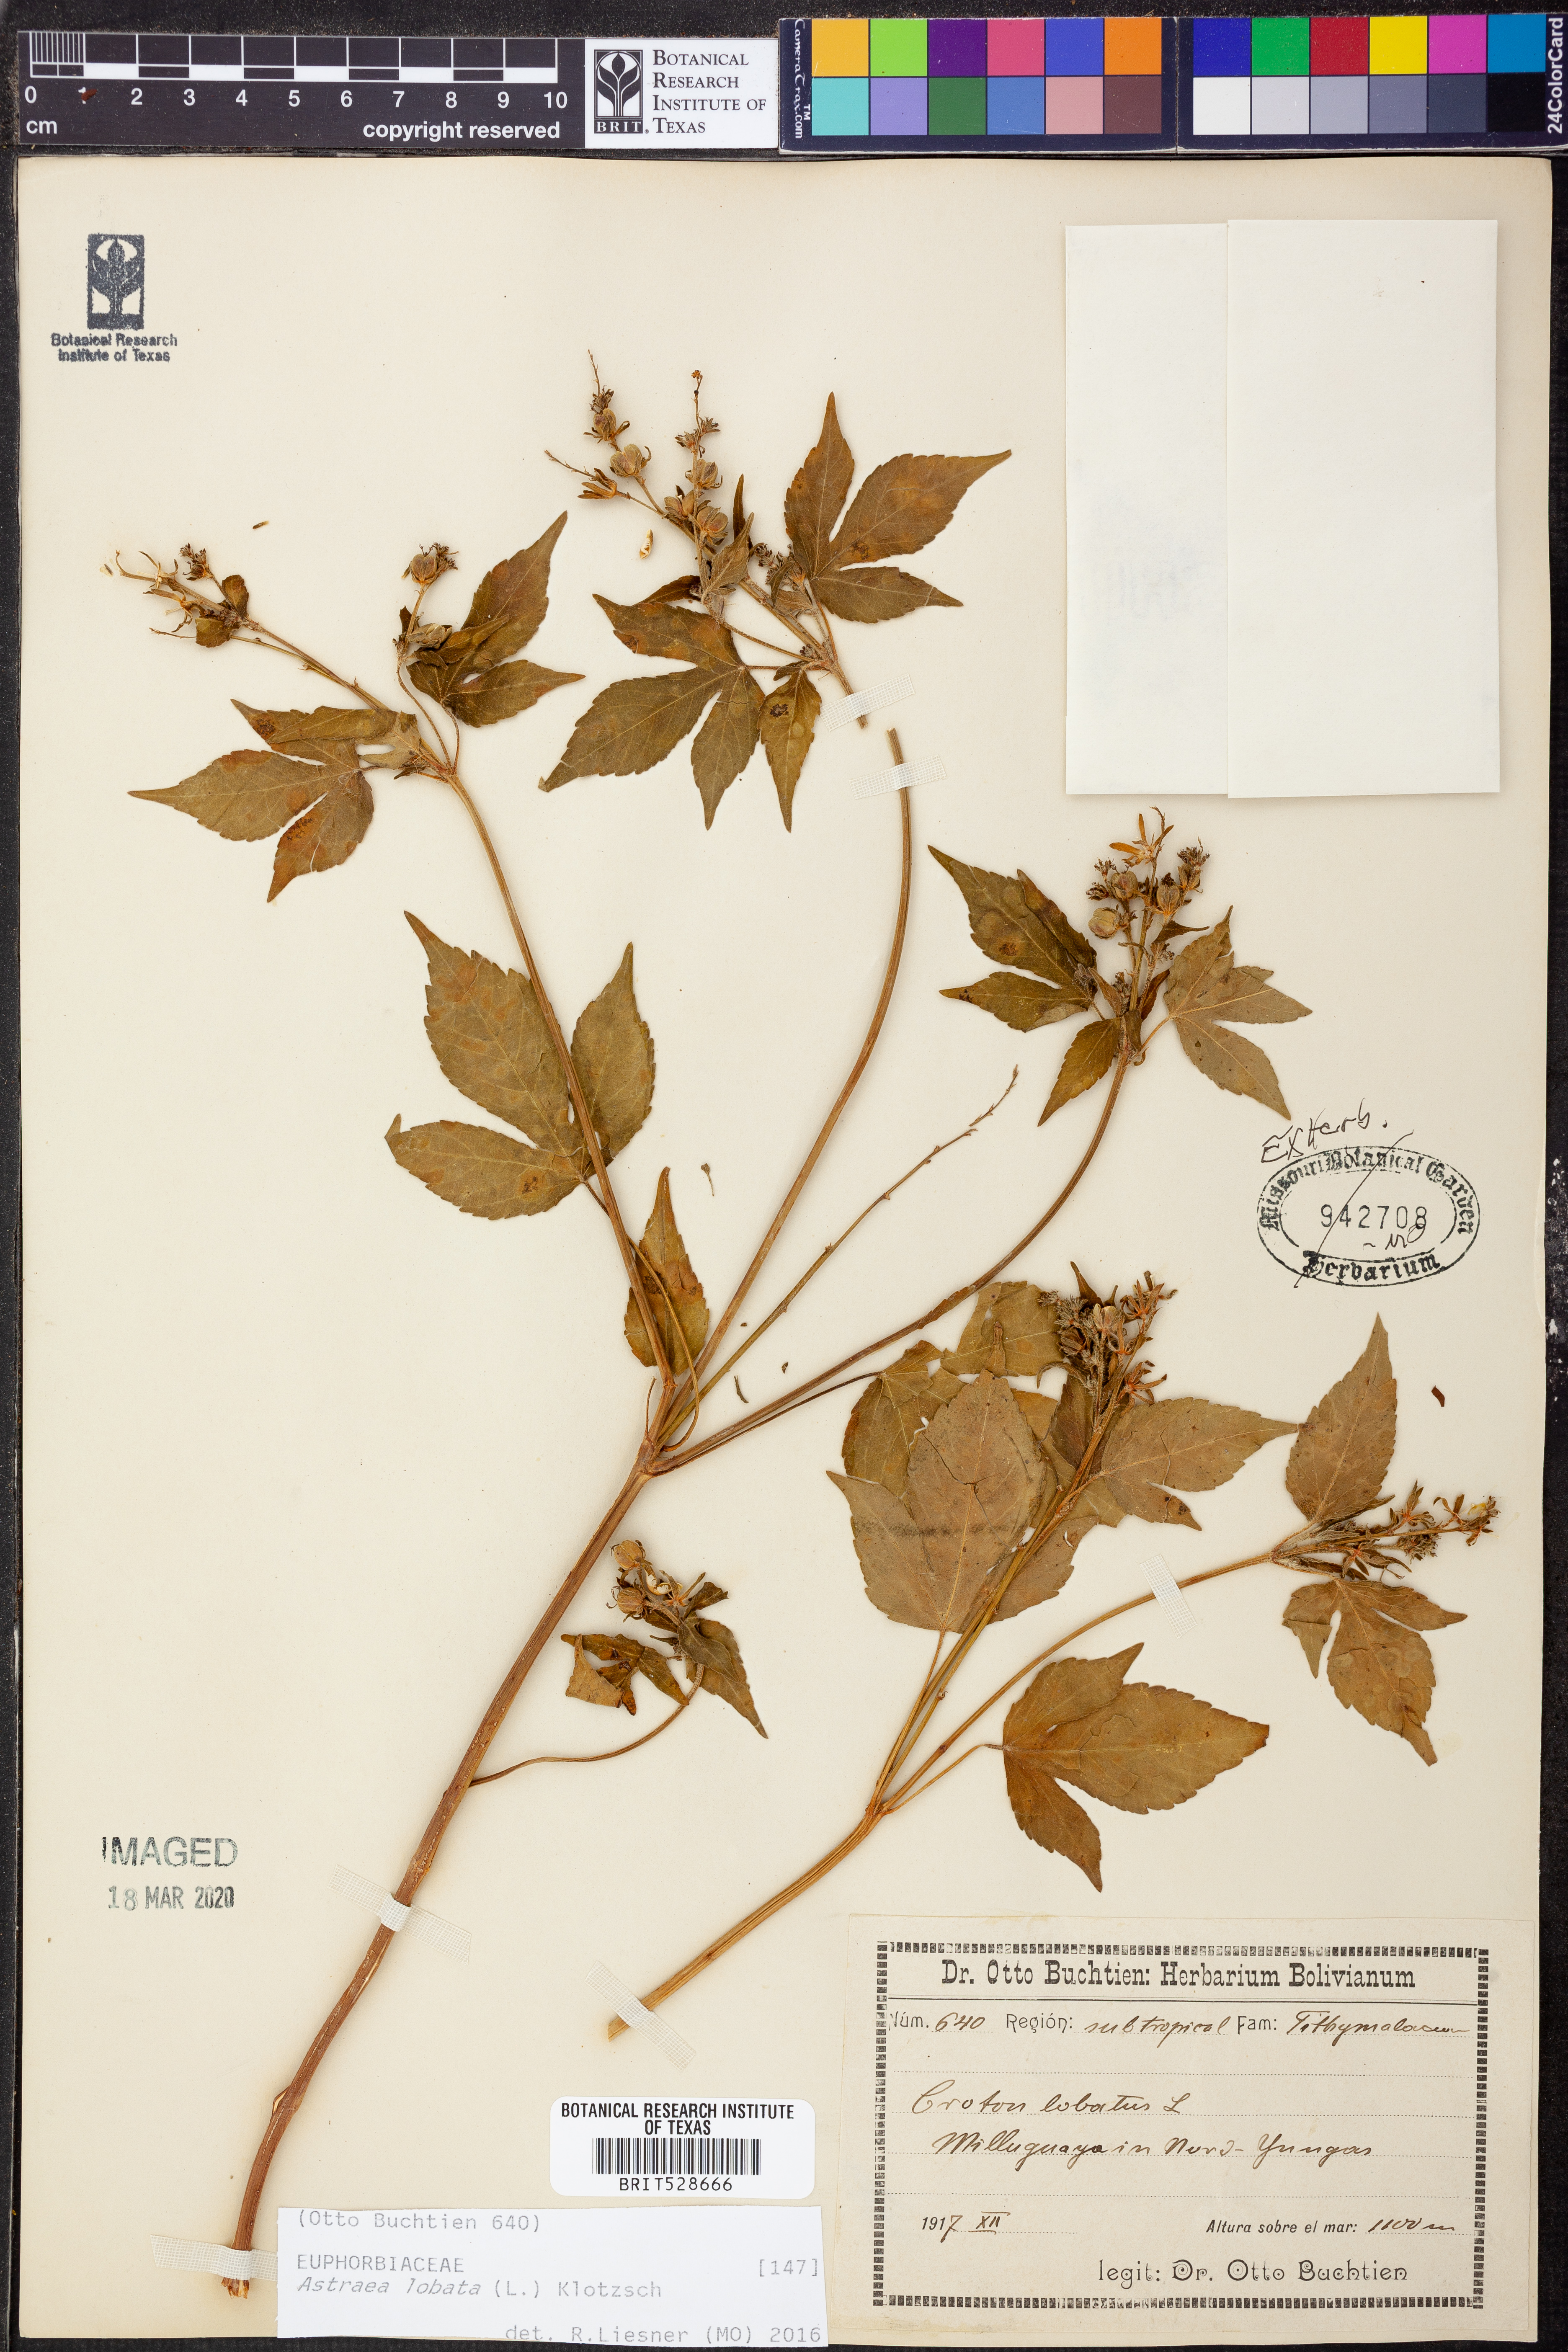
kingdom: Plantae
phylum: Tracheophyta
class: Magnoliopsida
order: Malpighiales
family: Euphorbiaceae
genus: Astraea
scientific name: Astraea lobata
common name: Lobed croton
